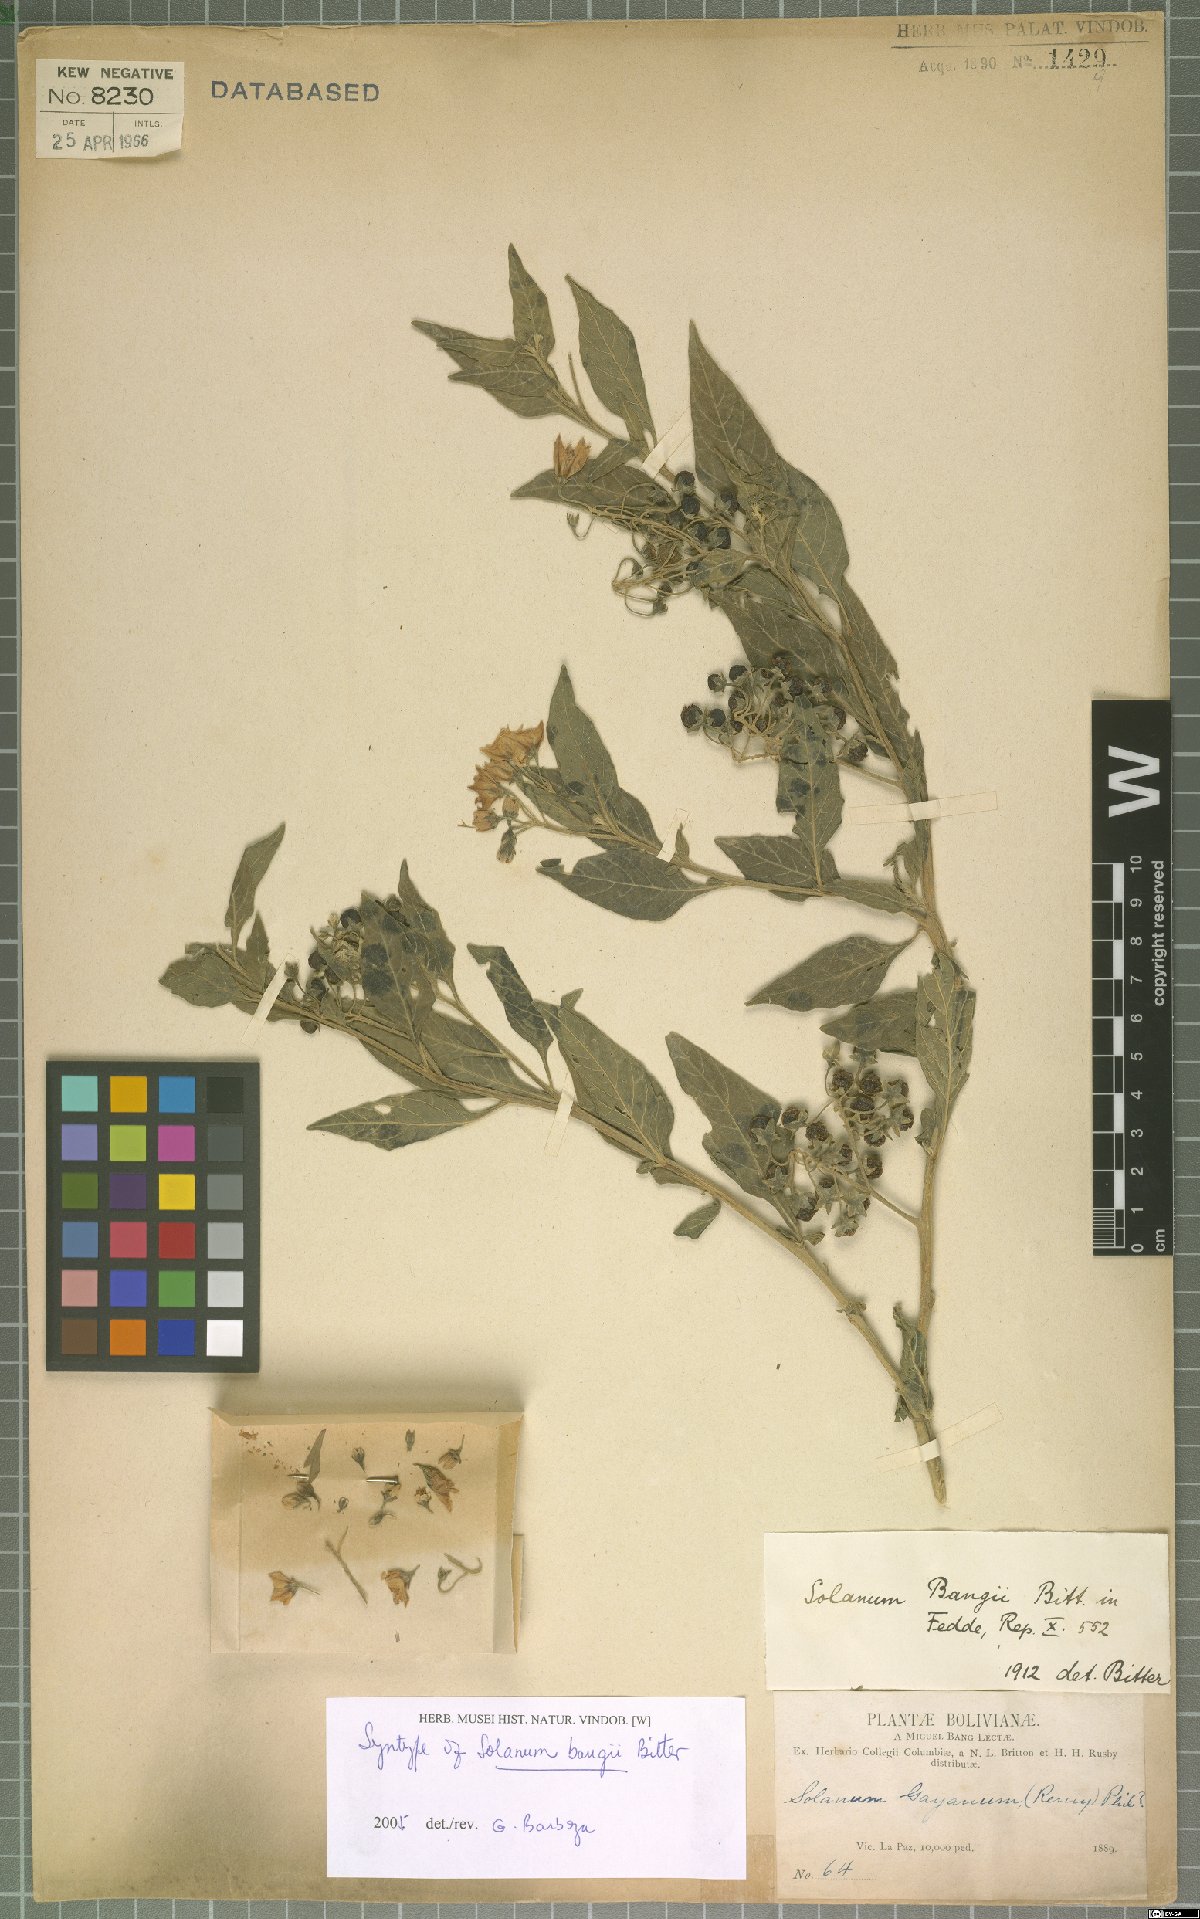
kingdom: Plantae
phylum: Tracheophyta
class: Magnoliopsida
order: Solanales
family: Solanaceae
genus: Solanum
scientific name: Solanum gonocladum
